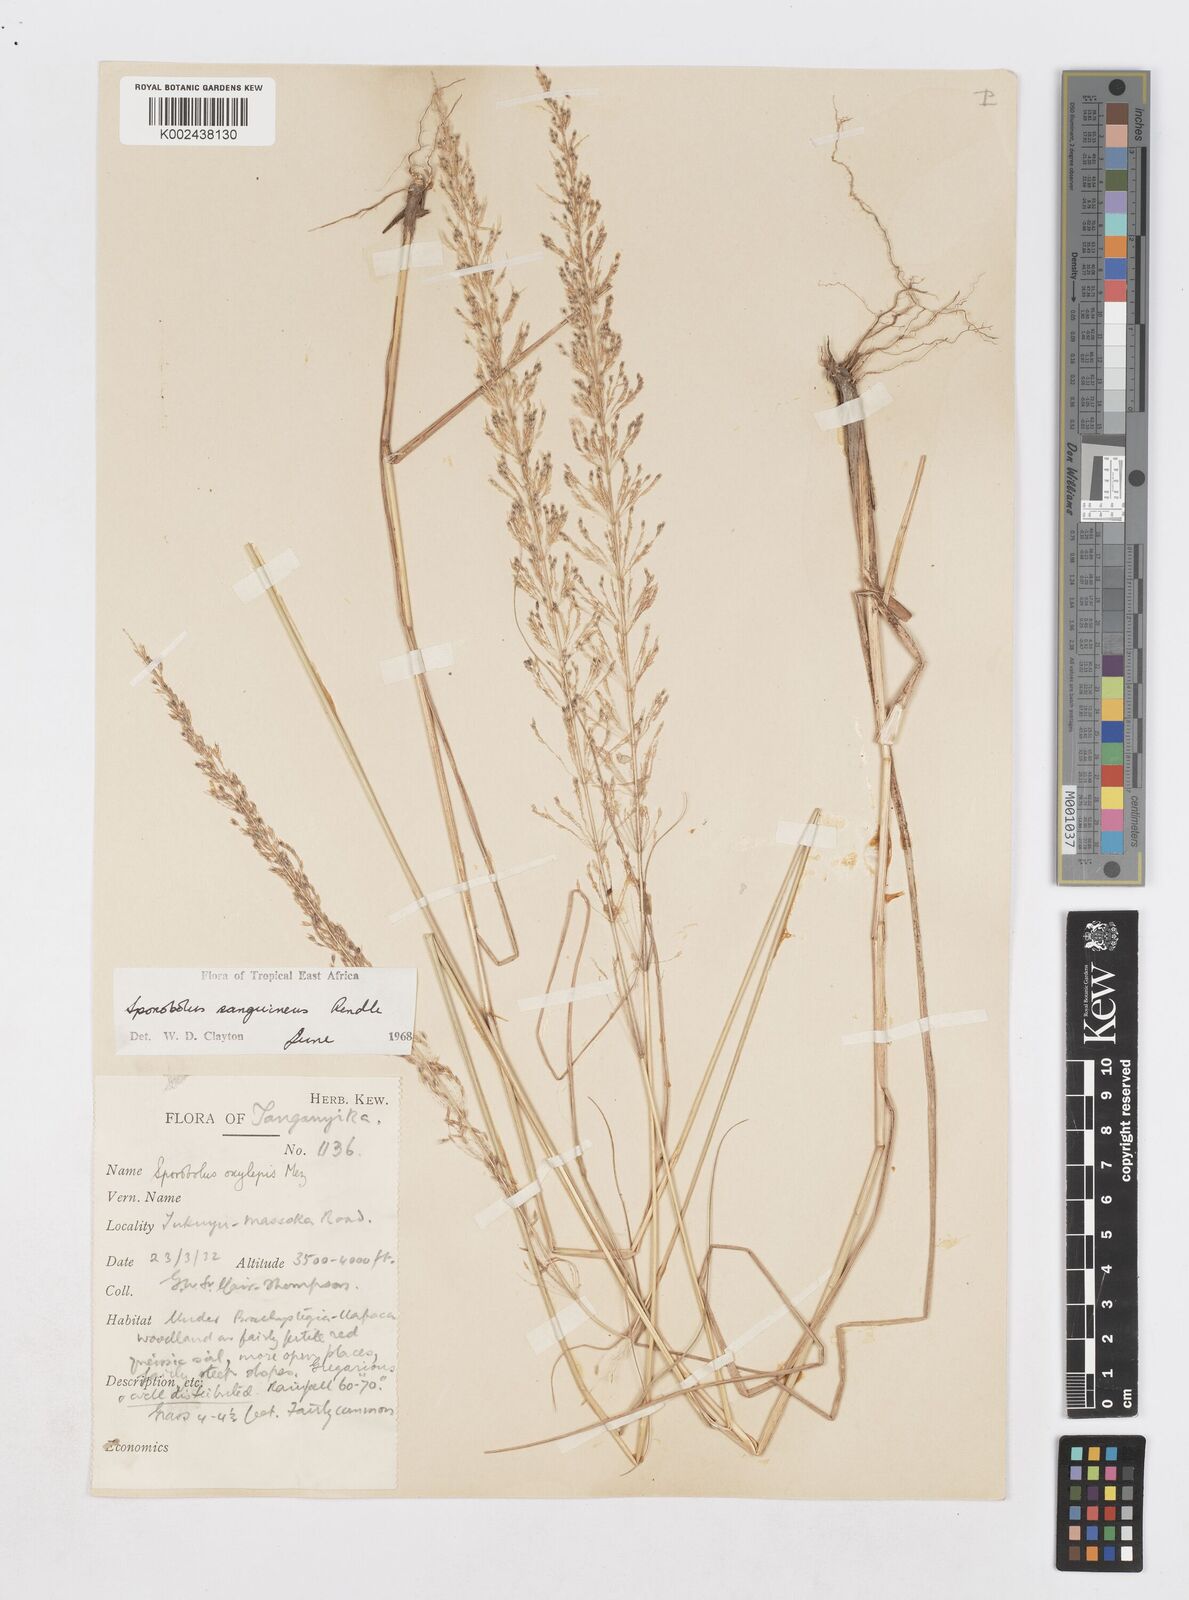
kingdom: Plantae
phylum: Tracheophyta
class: Liliopsida
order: Poales
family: Poaceae
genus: Sporobolus
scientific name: Sporobolus sanguineus
